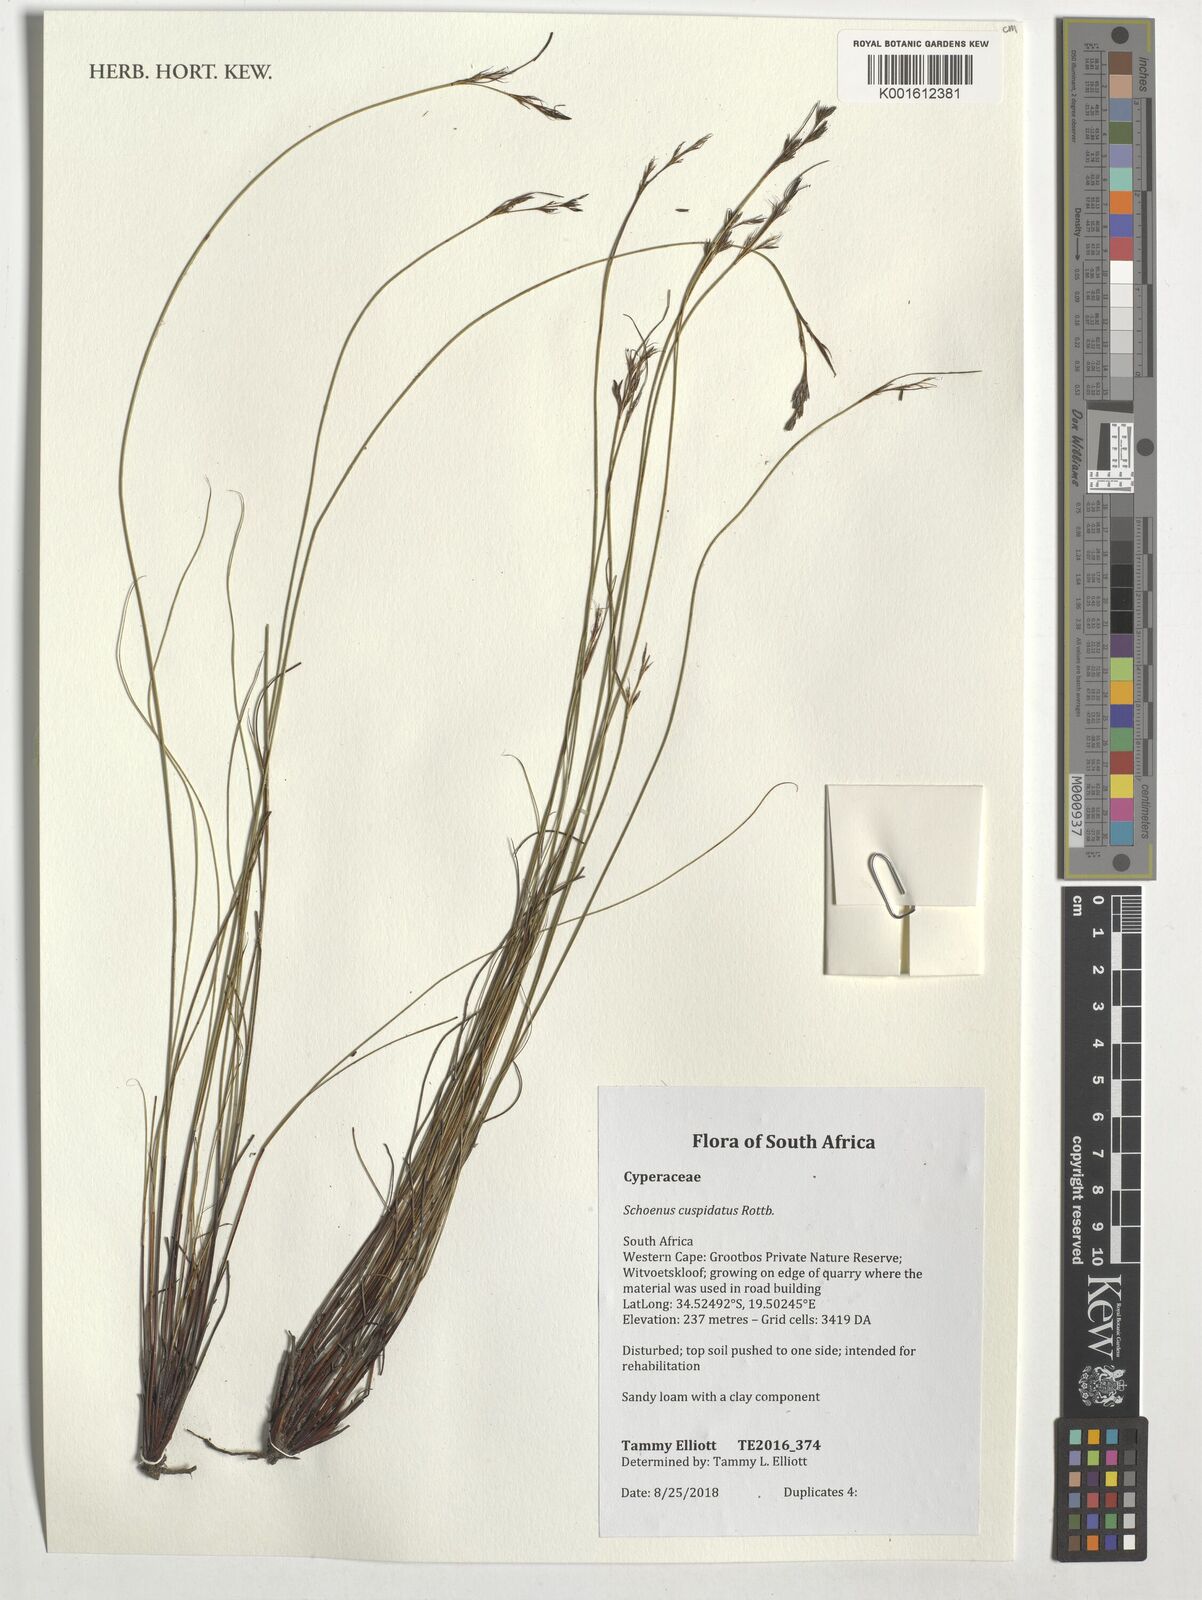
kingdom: Plantae
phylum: Tracheophyta
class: Liliopsida
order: Poales
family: Cyperaceae
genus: Schoenus
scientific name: Schoenus cuspidatus
